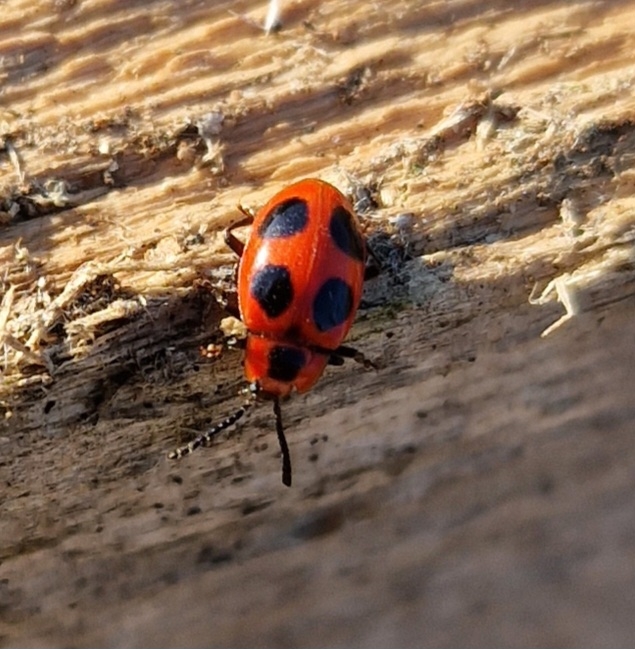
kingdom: Animalia
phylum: Arthropoda
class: Insecta
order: Coleoptera
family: Endomychidae
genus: Endomychus
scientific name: Endomychus coccineus
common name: Skarlagensvampehøne
